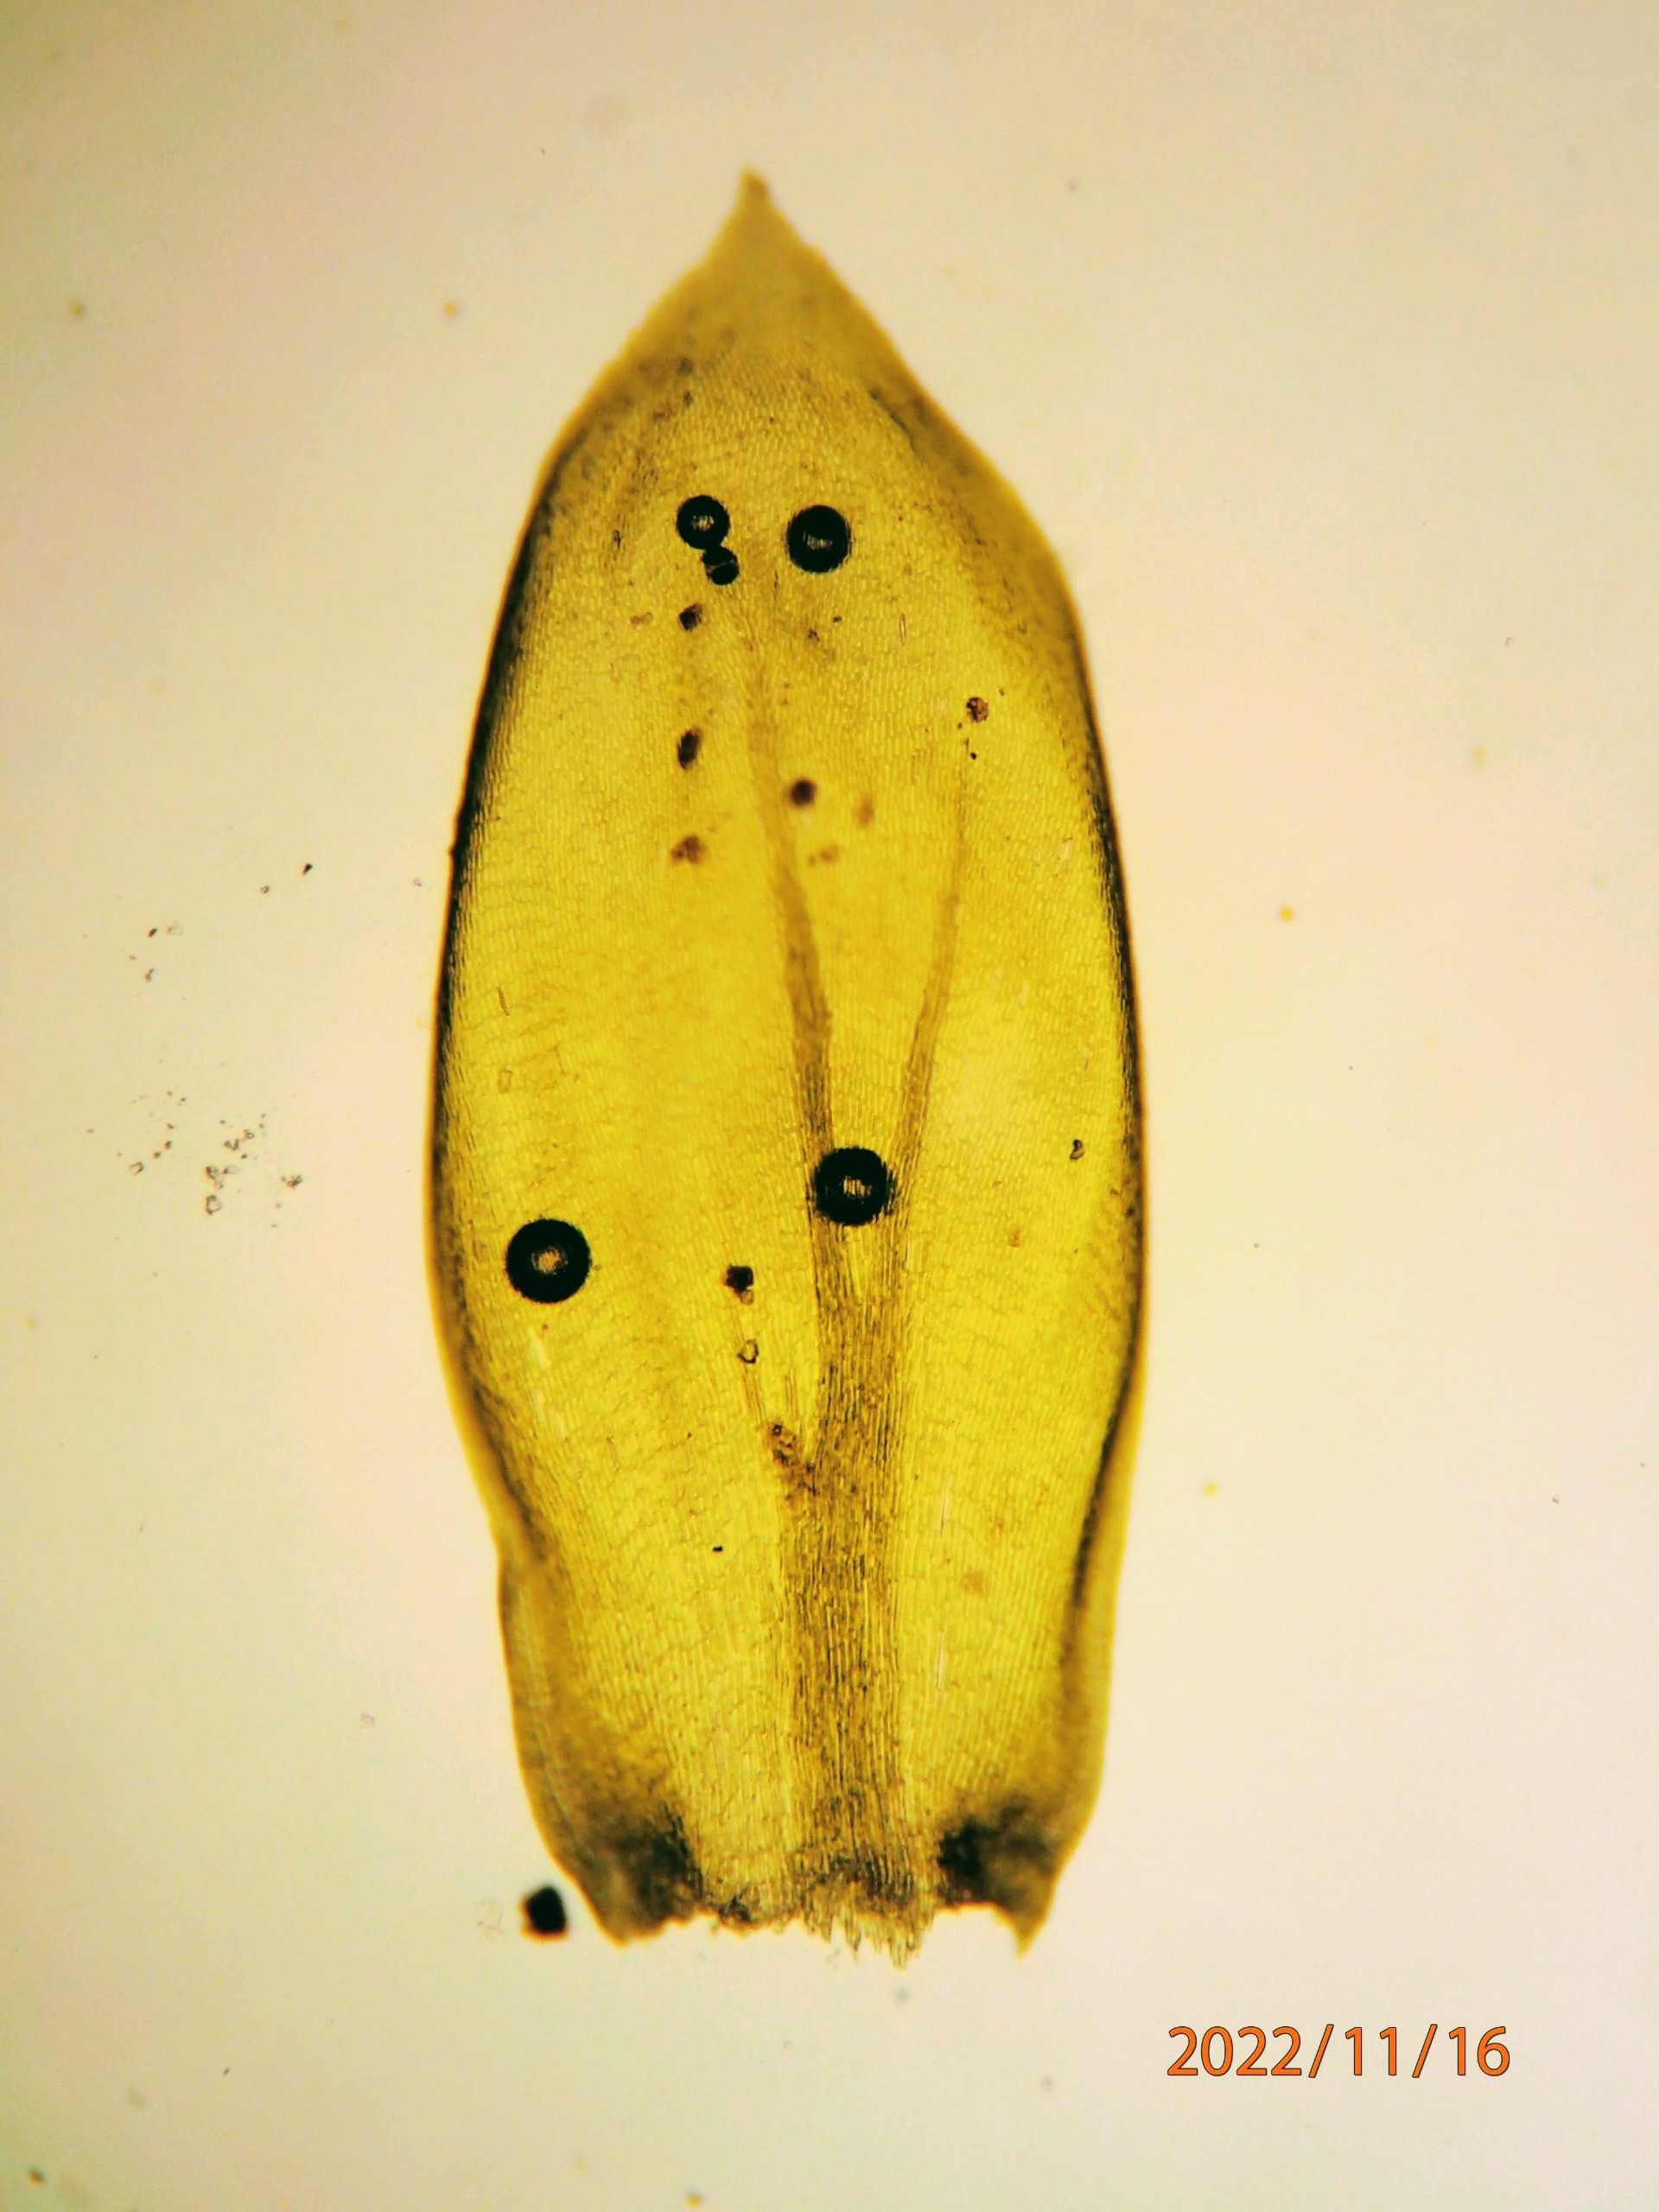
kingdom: Plantae
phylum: Bryophyta
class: Bryopsida
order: Hypnales
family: Lembophyllaceae
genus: Isothecium
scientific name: Isothecium alopecuroides
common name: Stor stammemos
